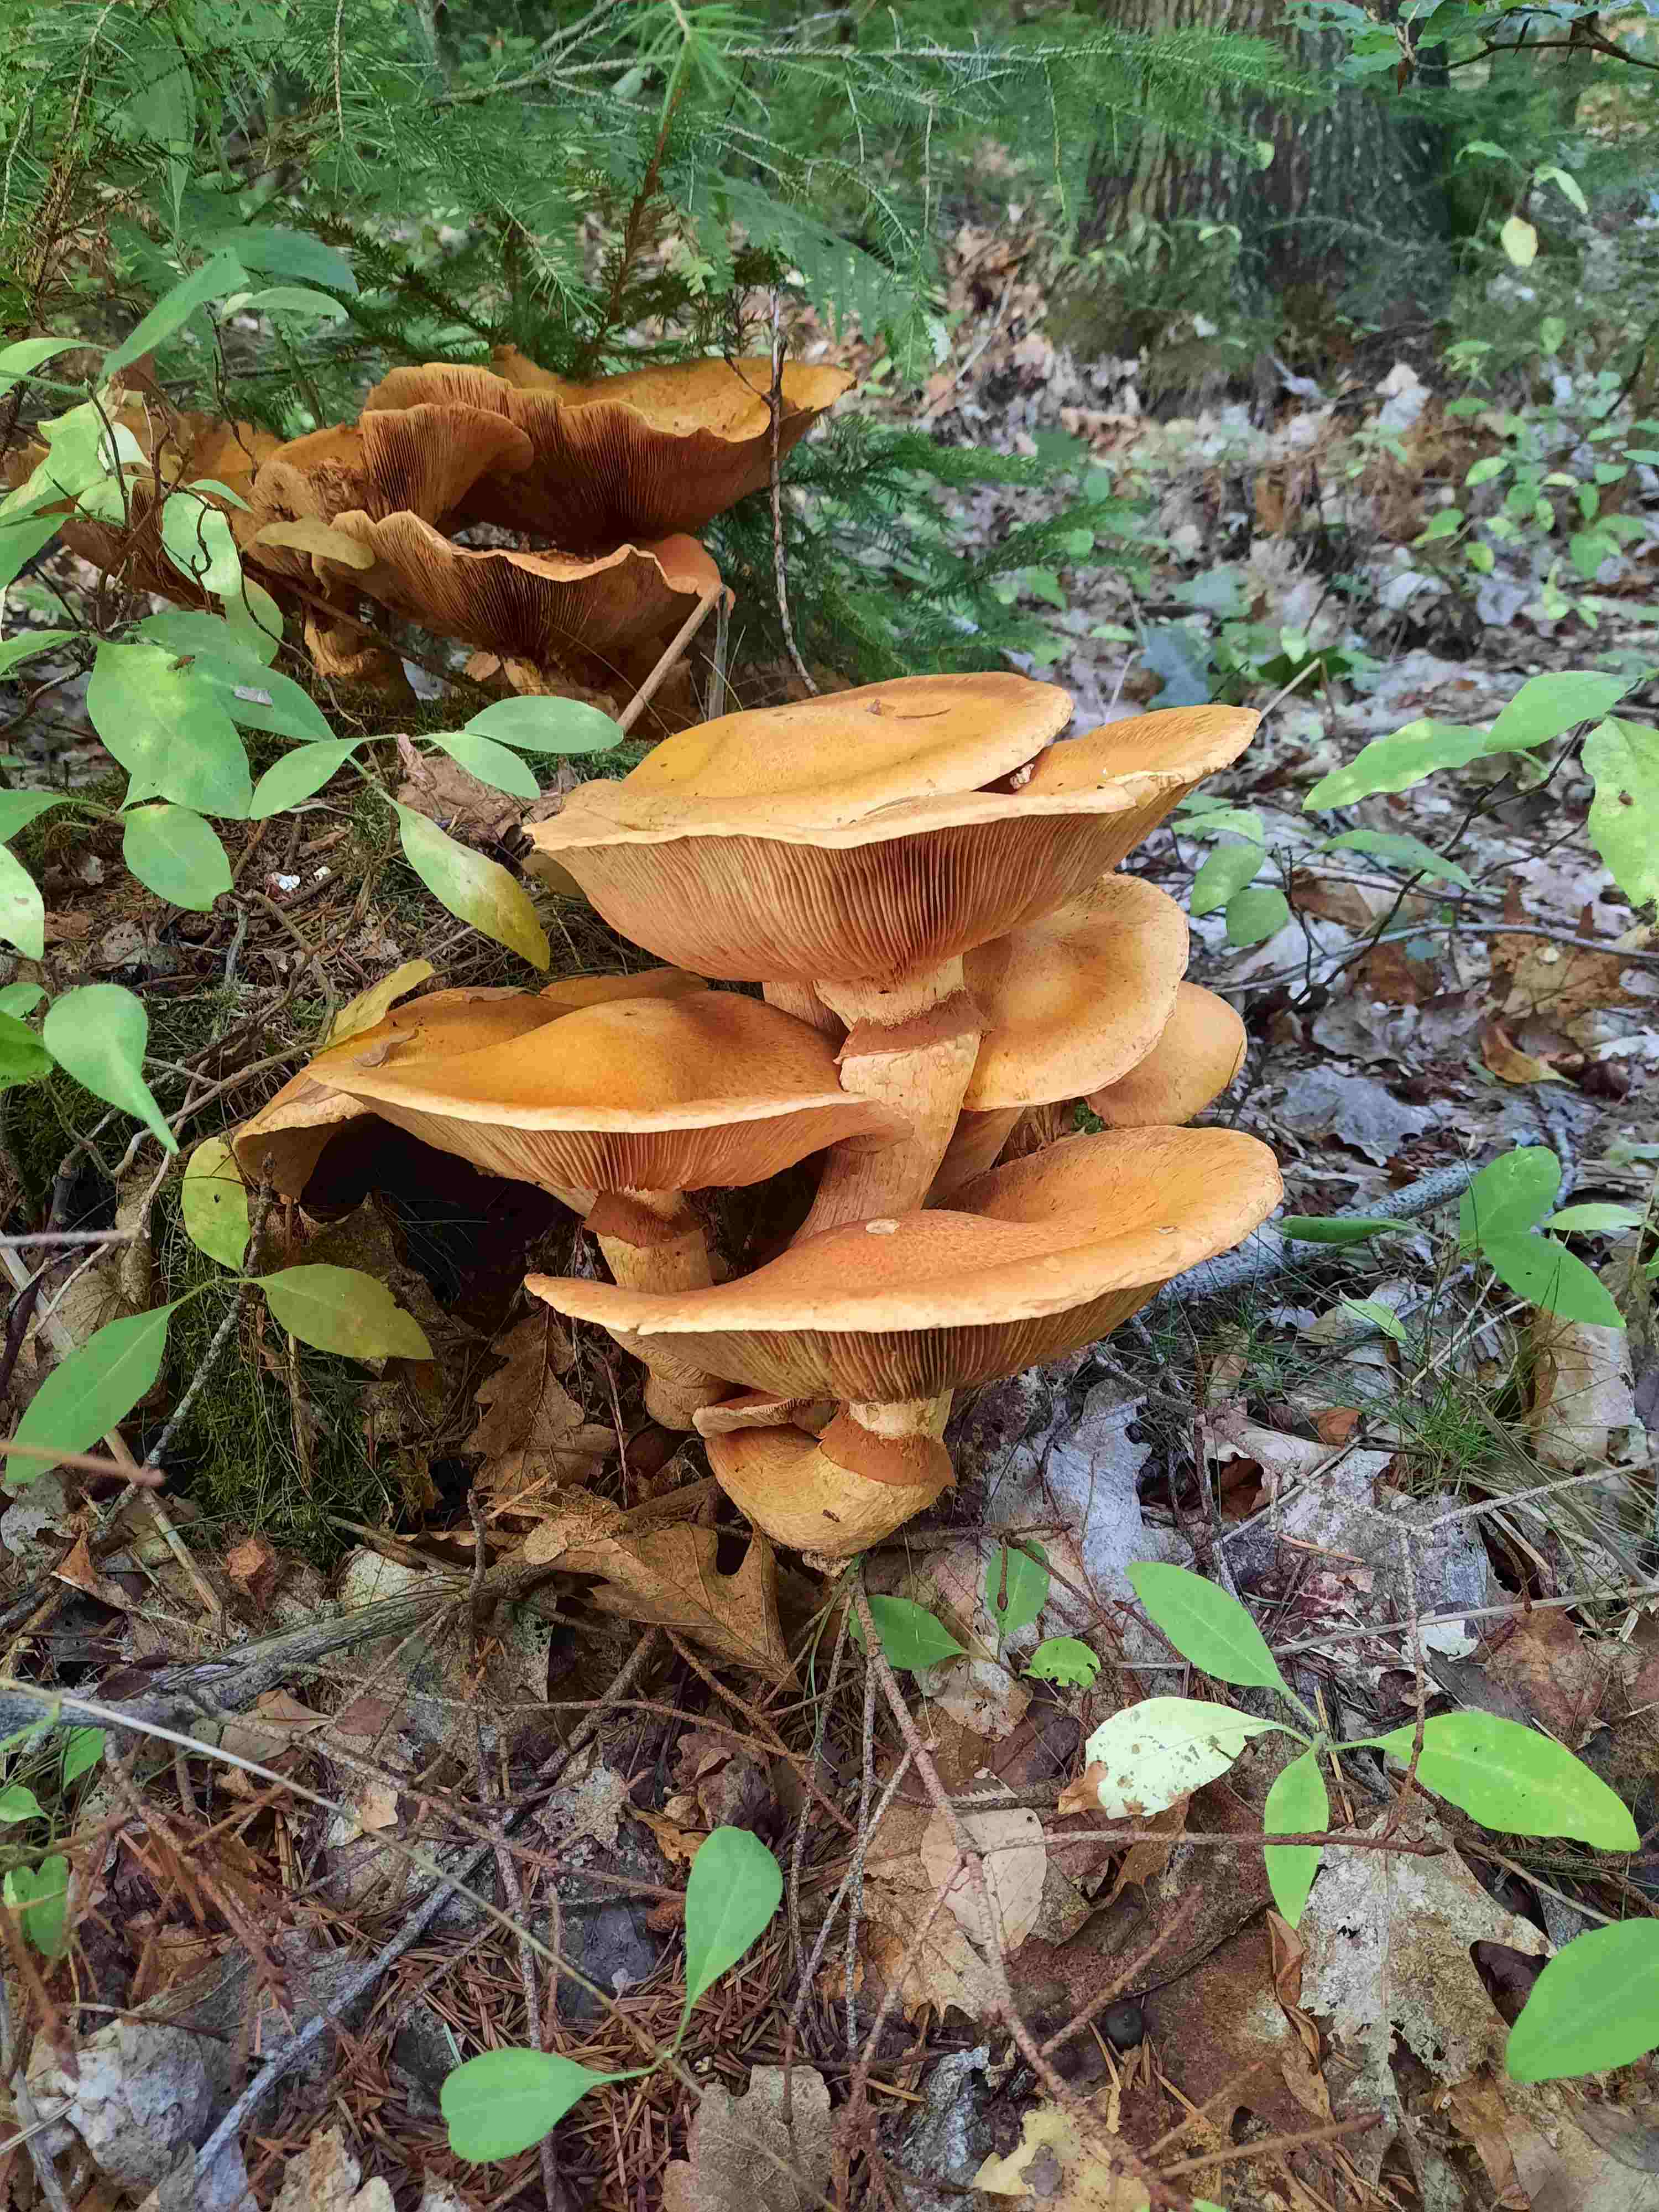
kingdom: Fungi
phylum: Basidiomycota
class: Agaricomycetes
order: Agaricales
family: Hymenogastraceae
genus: Gymnopilus
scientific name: Gymnopilus spectabilis
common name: fibret flammehat
